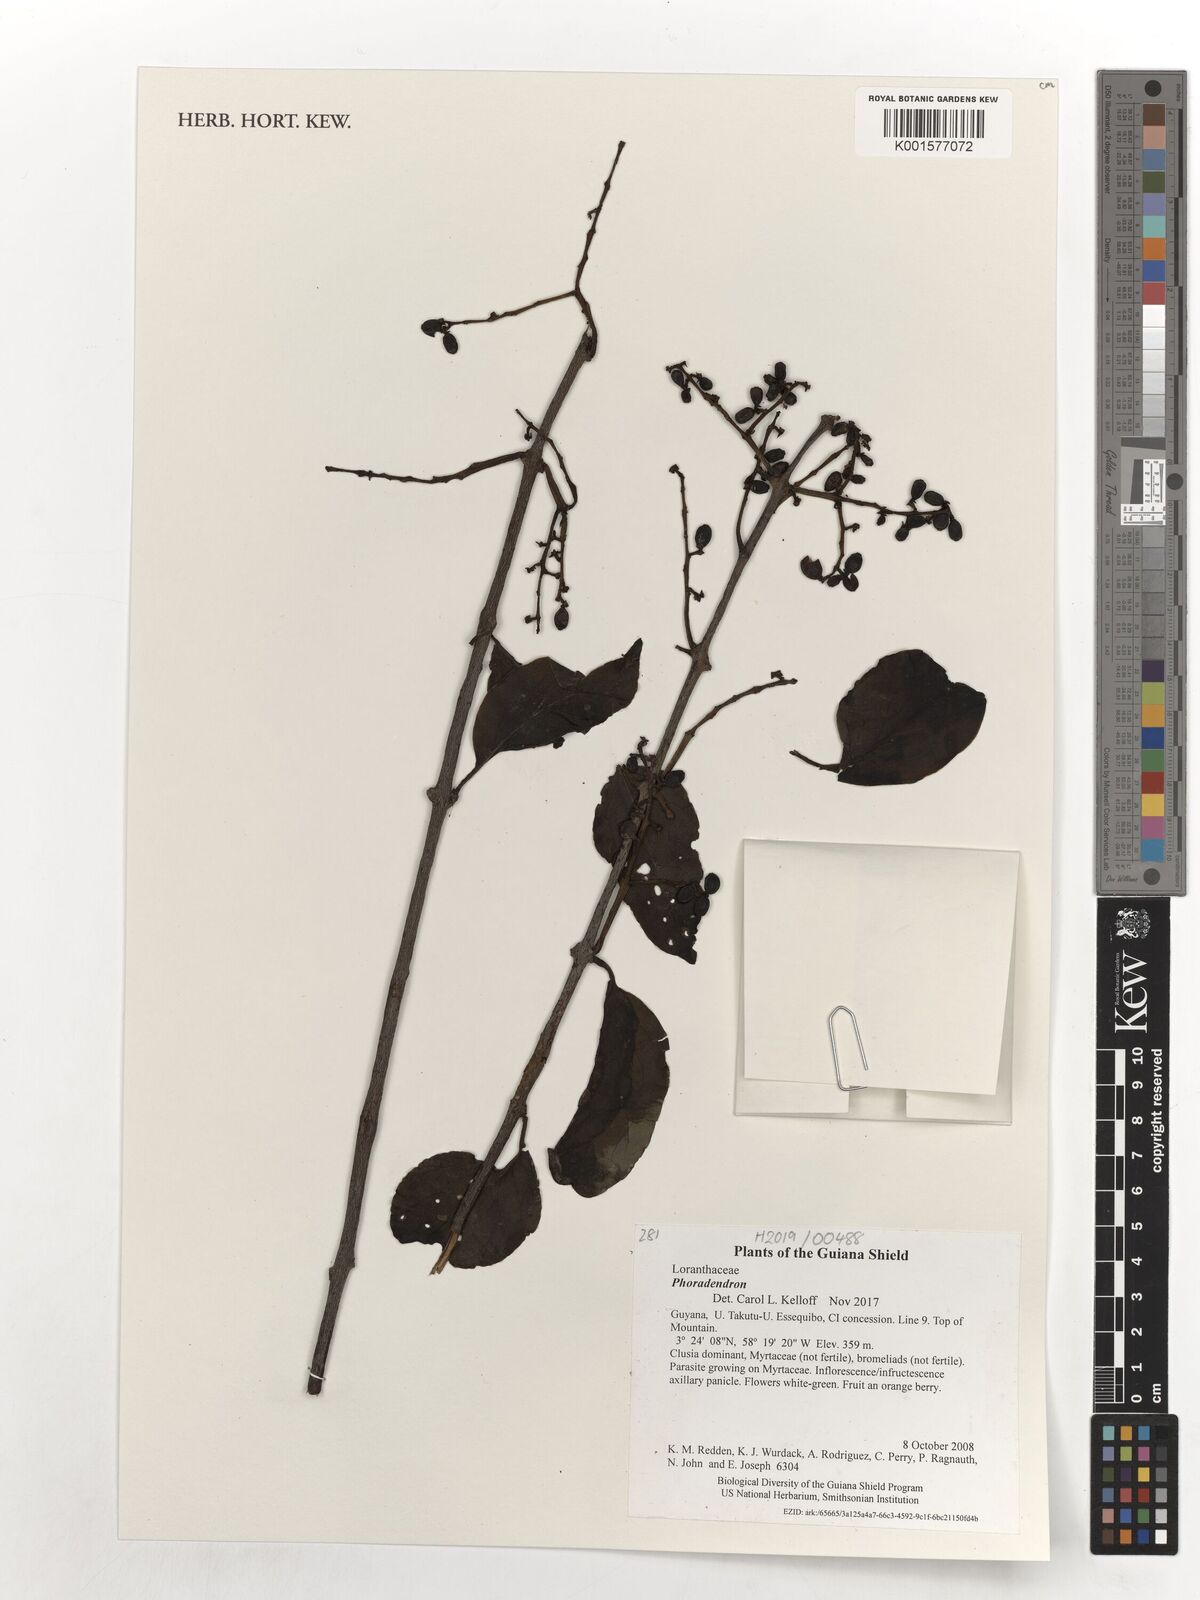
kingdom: Plantae
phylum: Tracheophyta
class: Magnoliopsida
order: Santalales
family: Viscaceae
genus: Phoradendron
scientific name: Phoradendron
